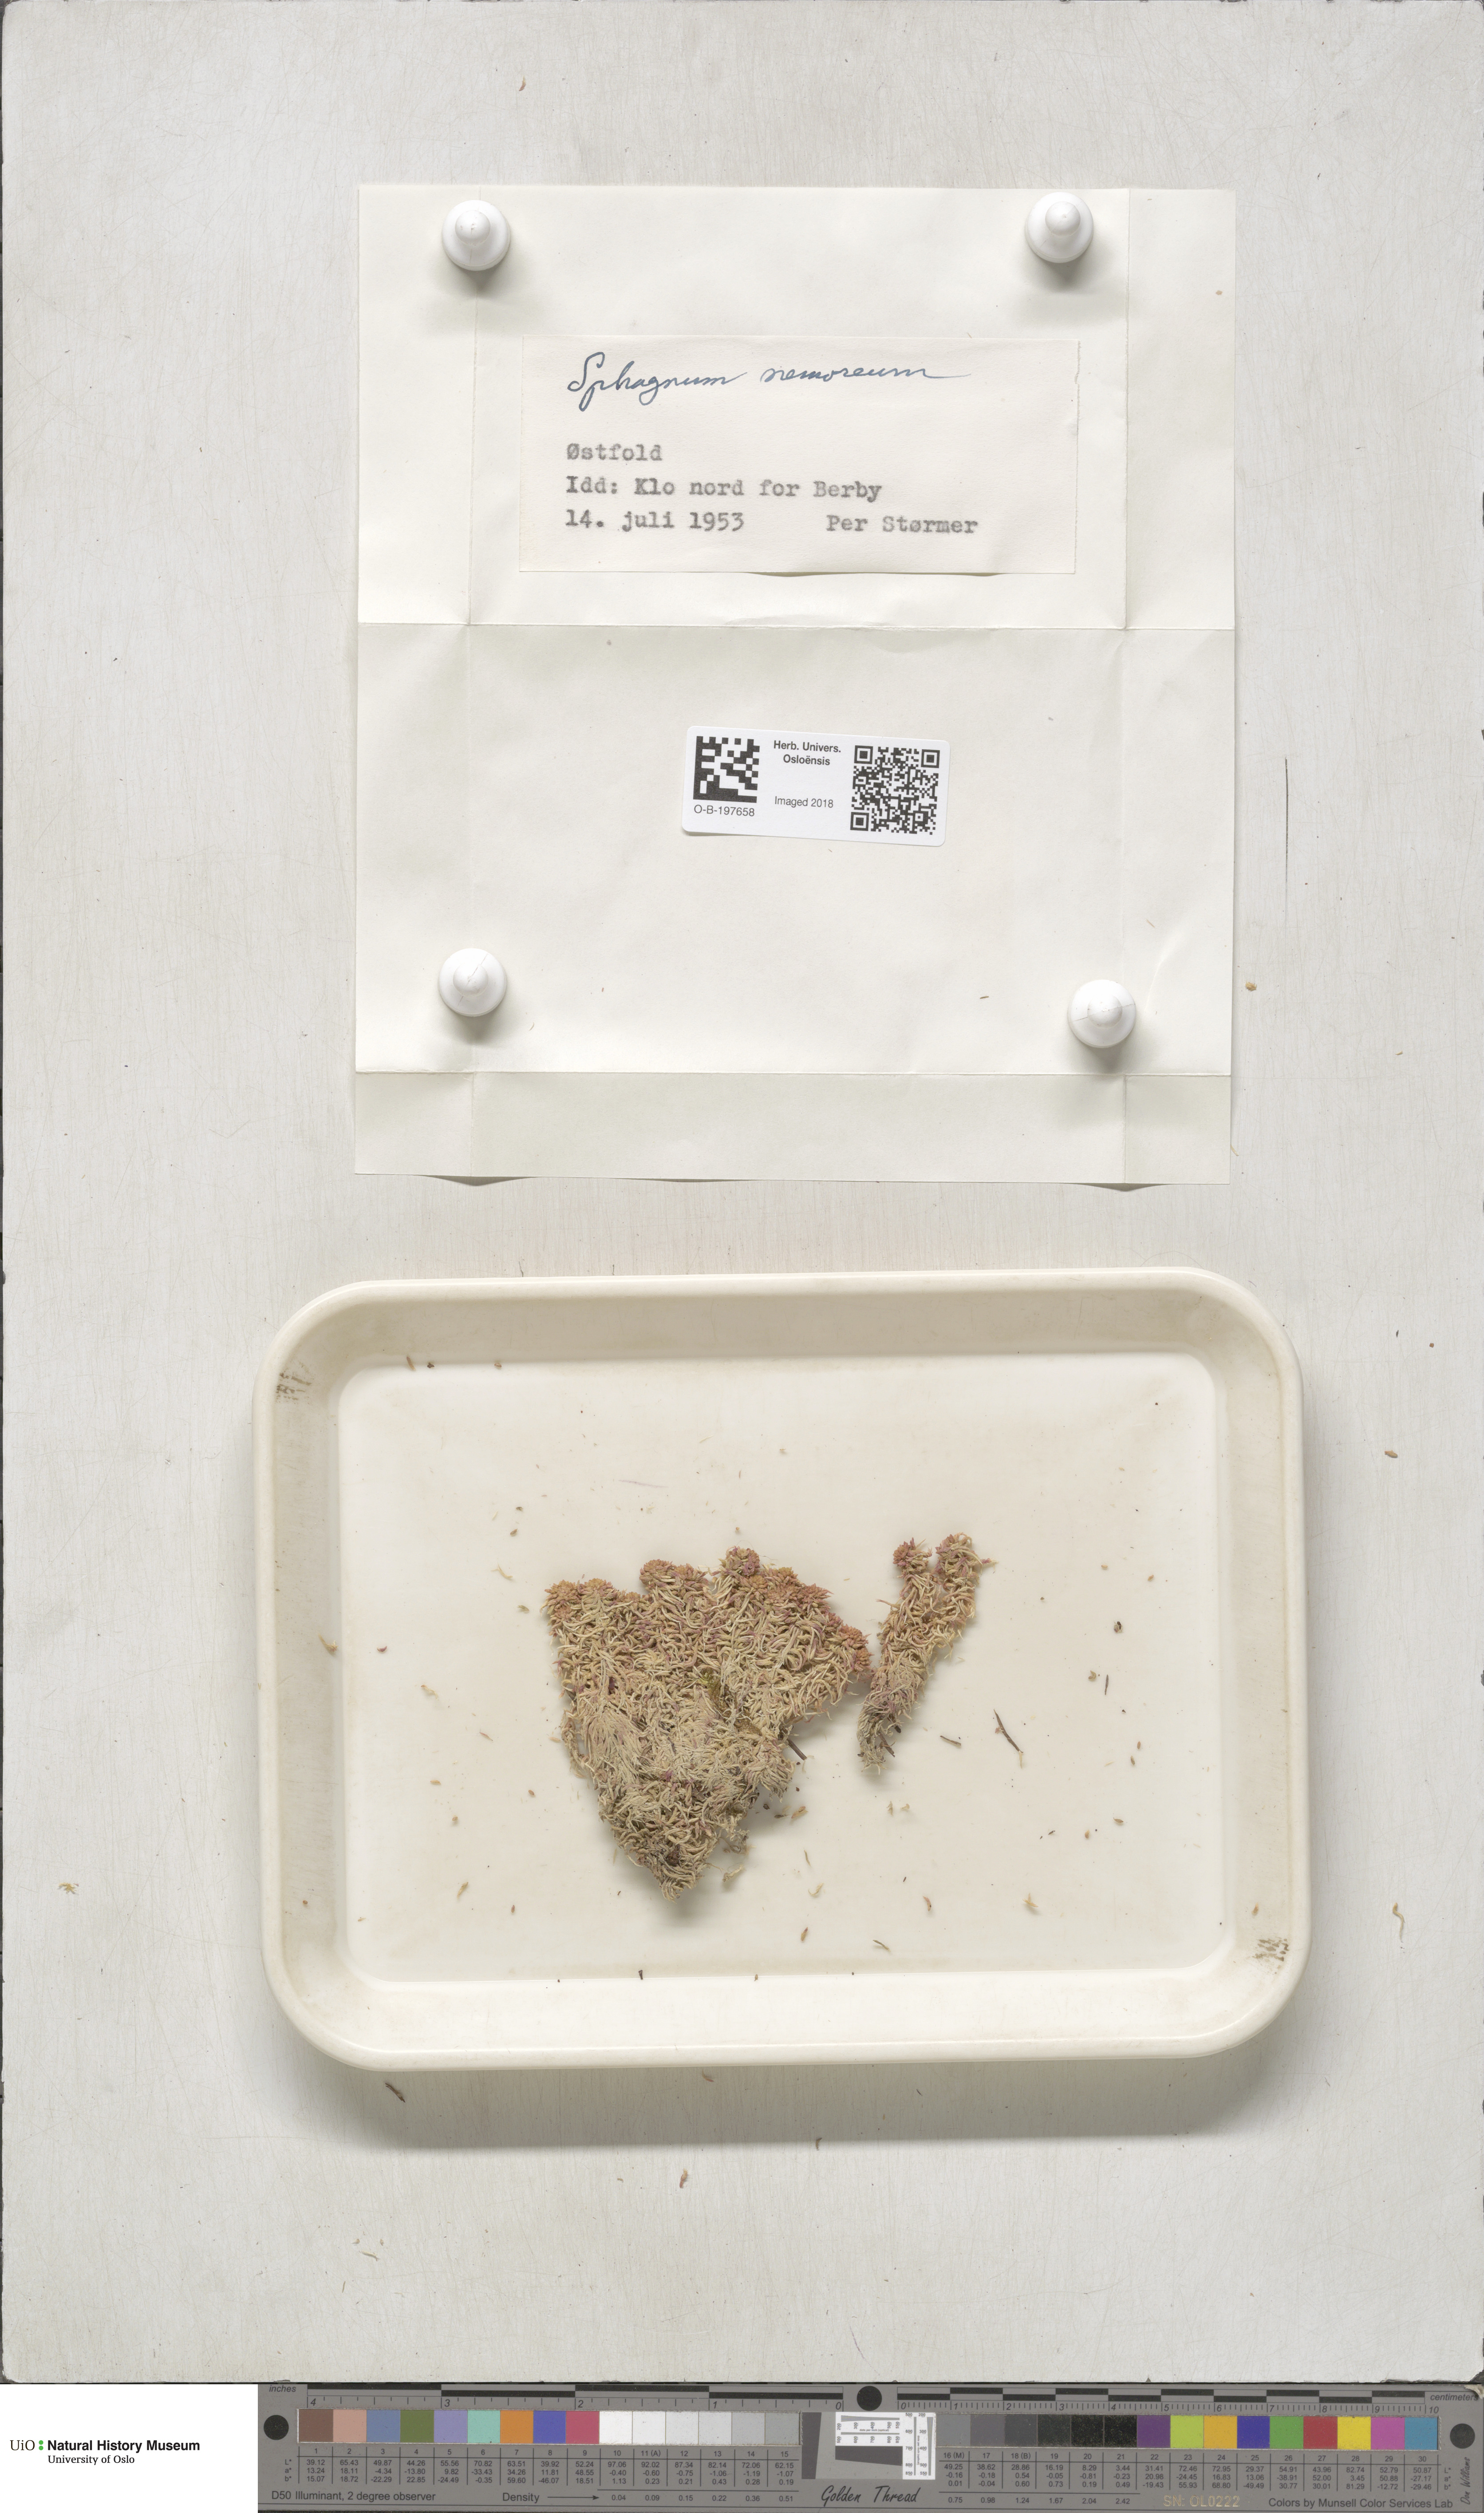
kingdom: Plantae
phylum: Bryophyta
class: Sphagnopsida
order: Sphagnales
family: Sphagnaceae
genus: Sphagnum
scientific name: Sphagnum capillifolium
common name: Small red peat moss
